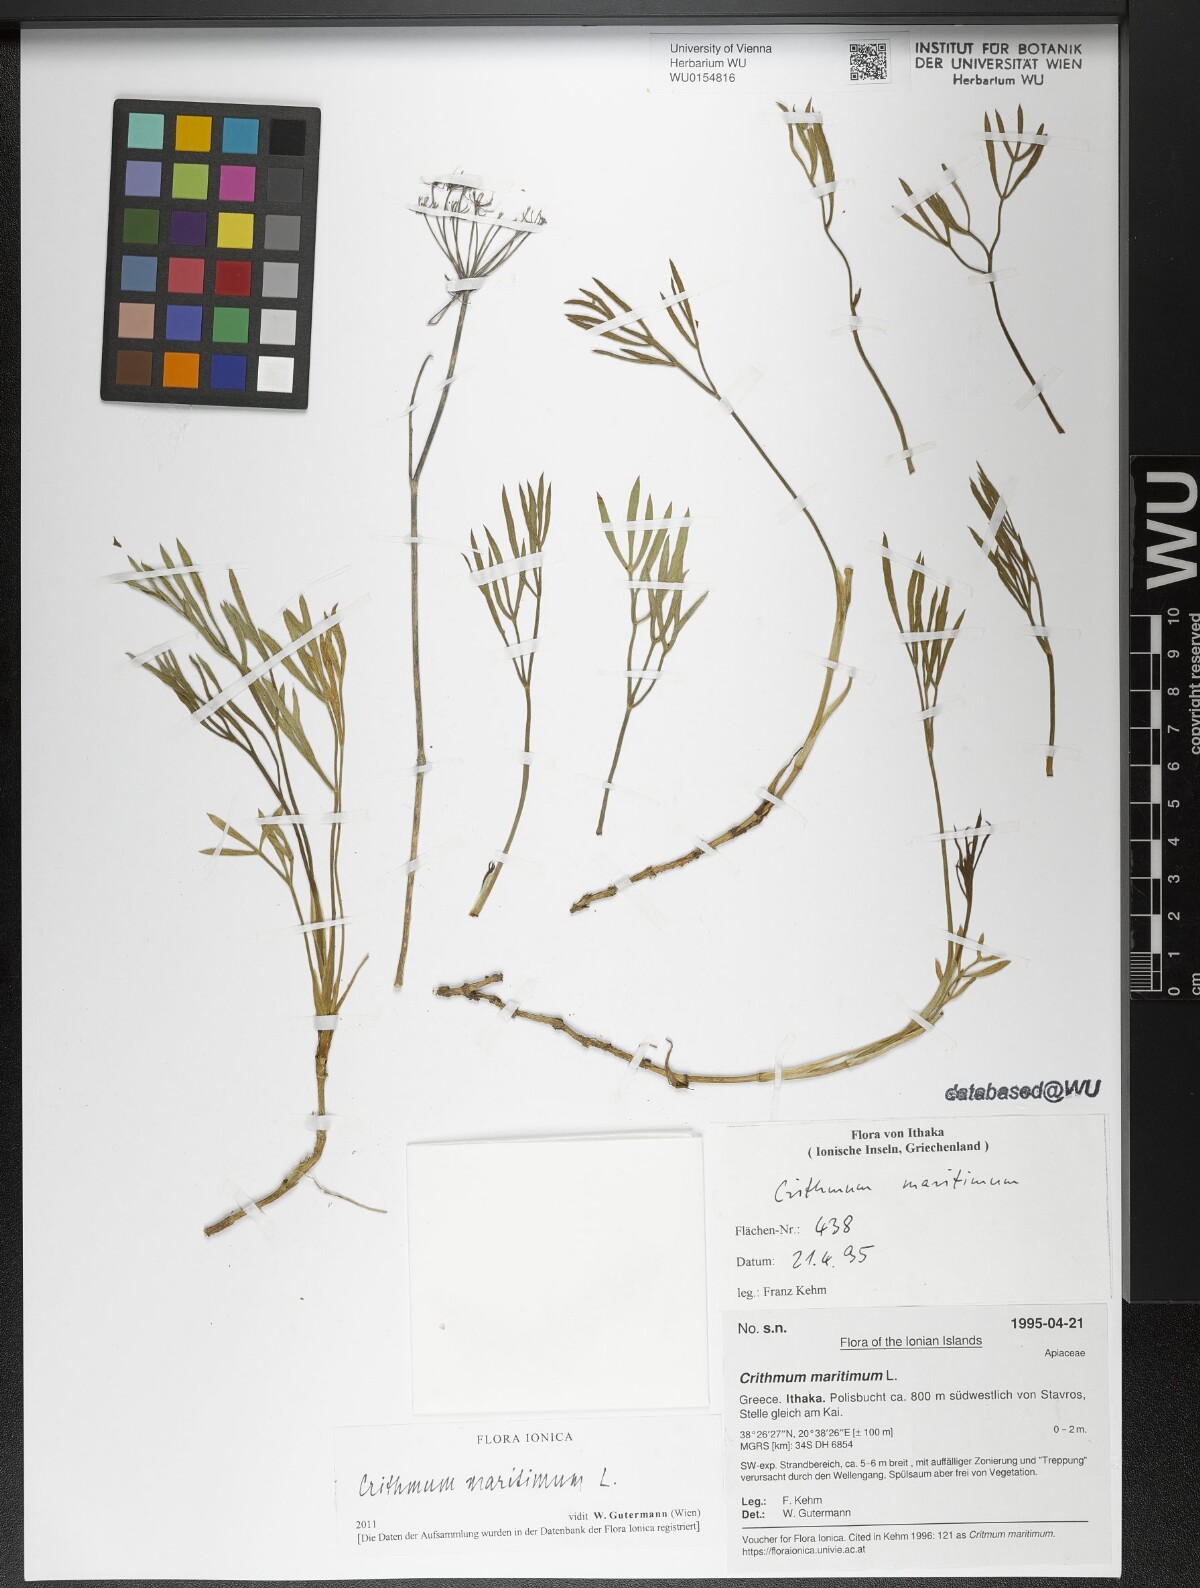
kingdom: Plantae
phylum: Tracheophyta
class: Magnoliopsida
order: Apiales
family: Apiaceae
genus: Crithmum
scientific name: Crithmum maritimum
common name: Rock samphire
